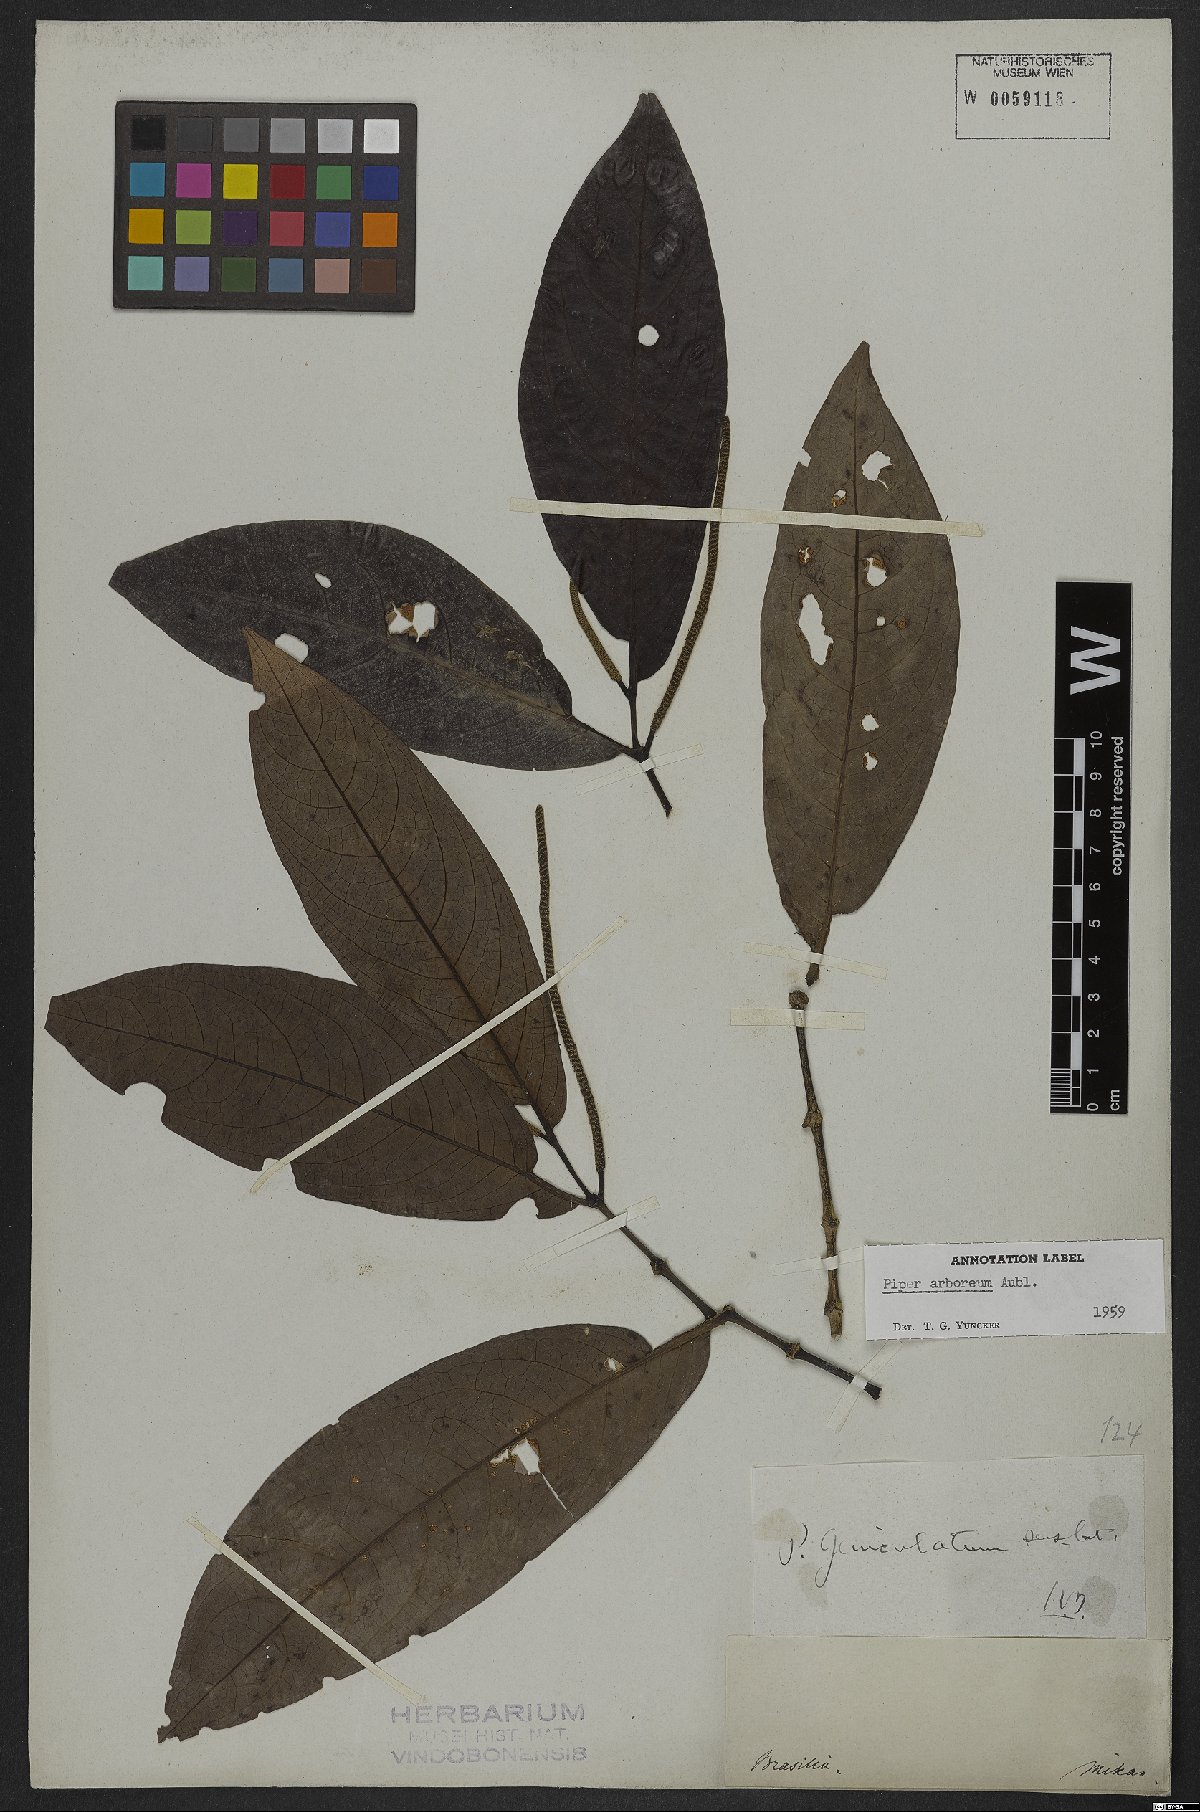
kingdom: Plantae
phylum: Tracheophyta
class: Magnoliopsida
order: Piperales
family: Piperaceae
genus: Piper
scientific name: Piper arboreum
